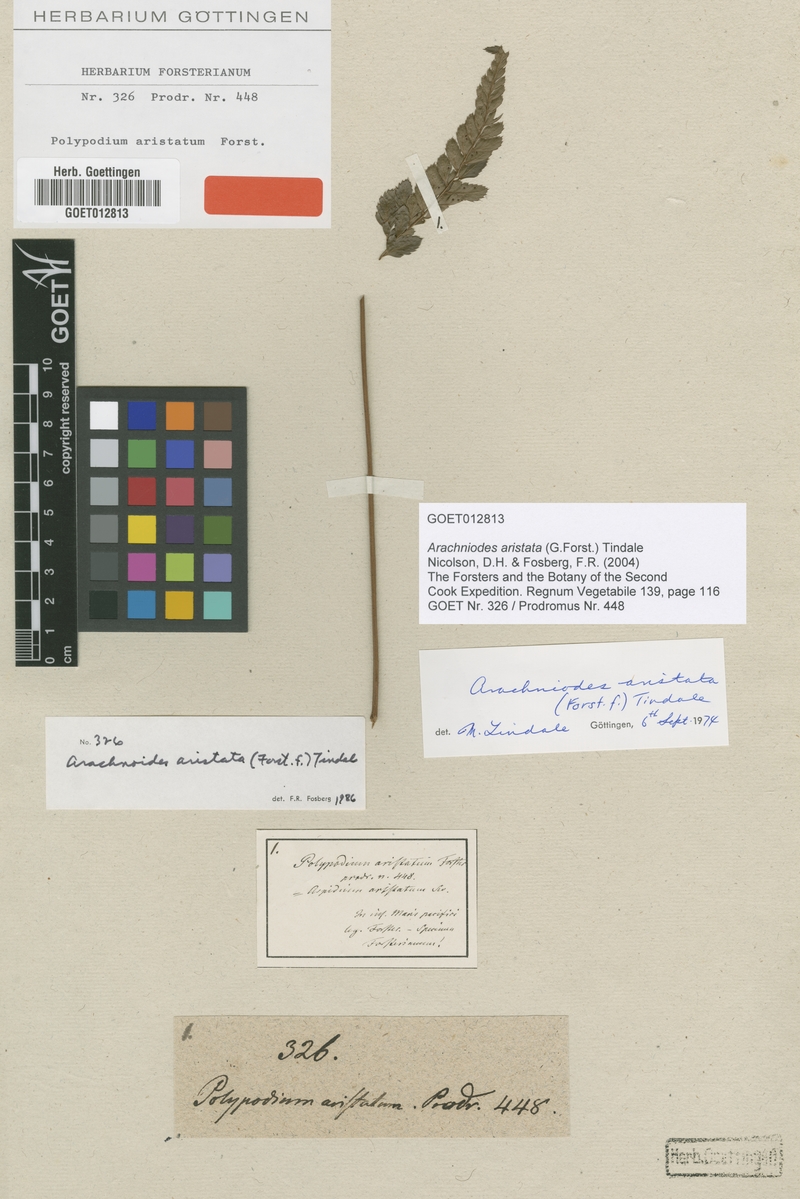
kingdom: Plantae
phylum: Tracheophyta
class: Polypodiopsida
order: Polypodiales
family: Dryopteridaceae
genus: Arachniodes
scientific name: Arachniodes aristata
